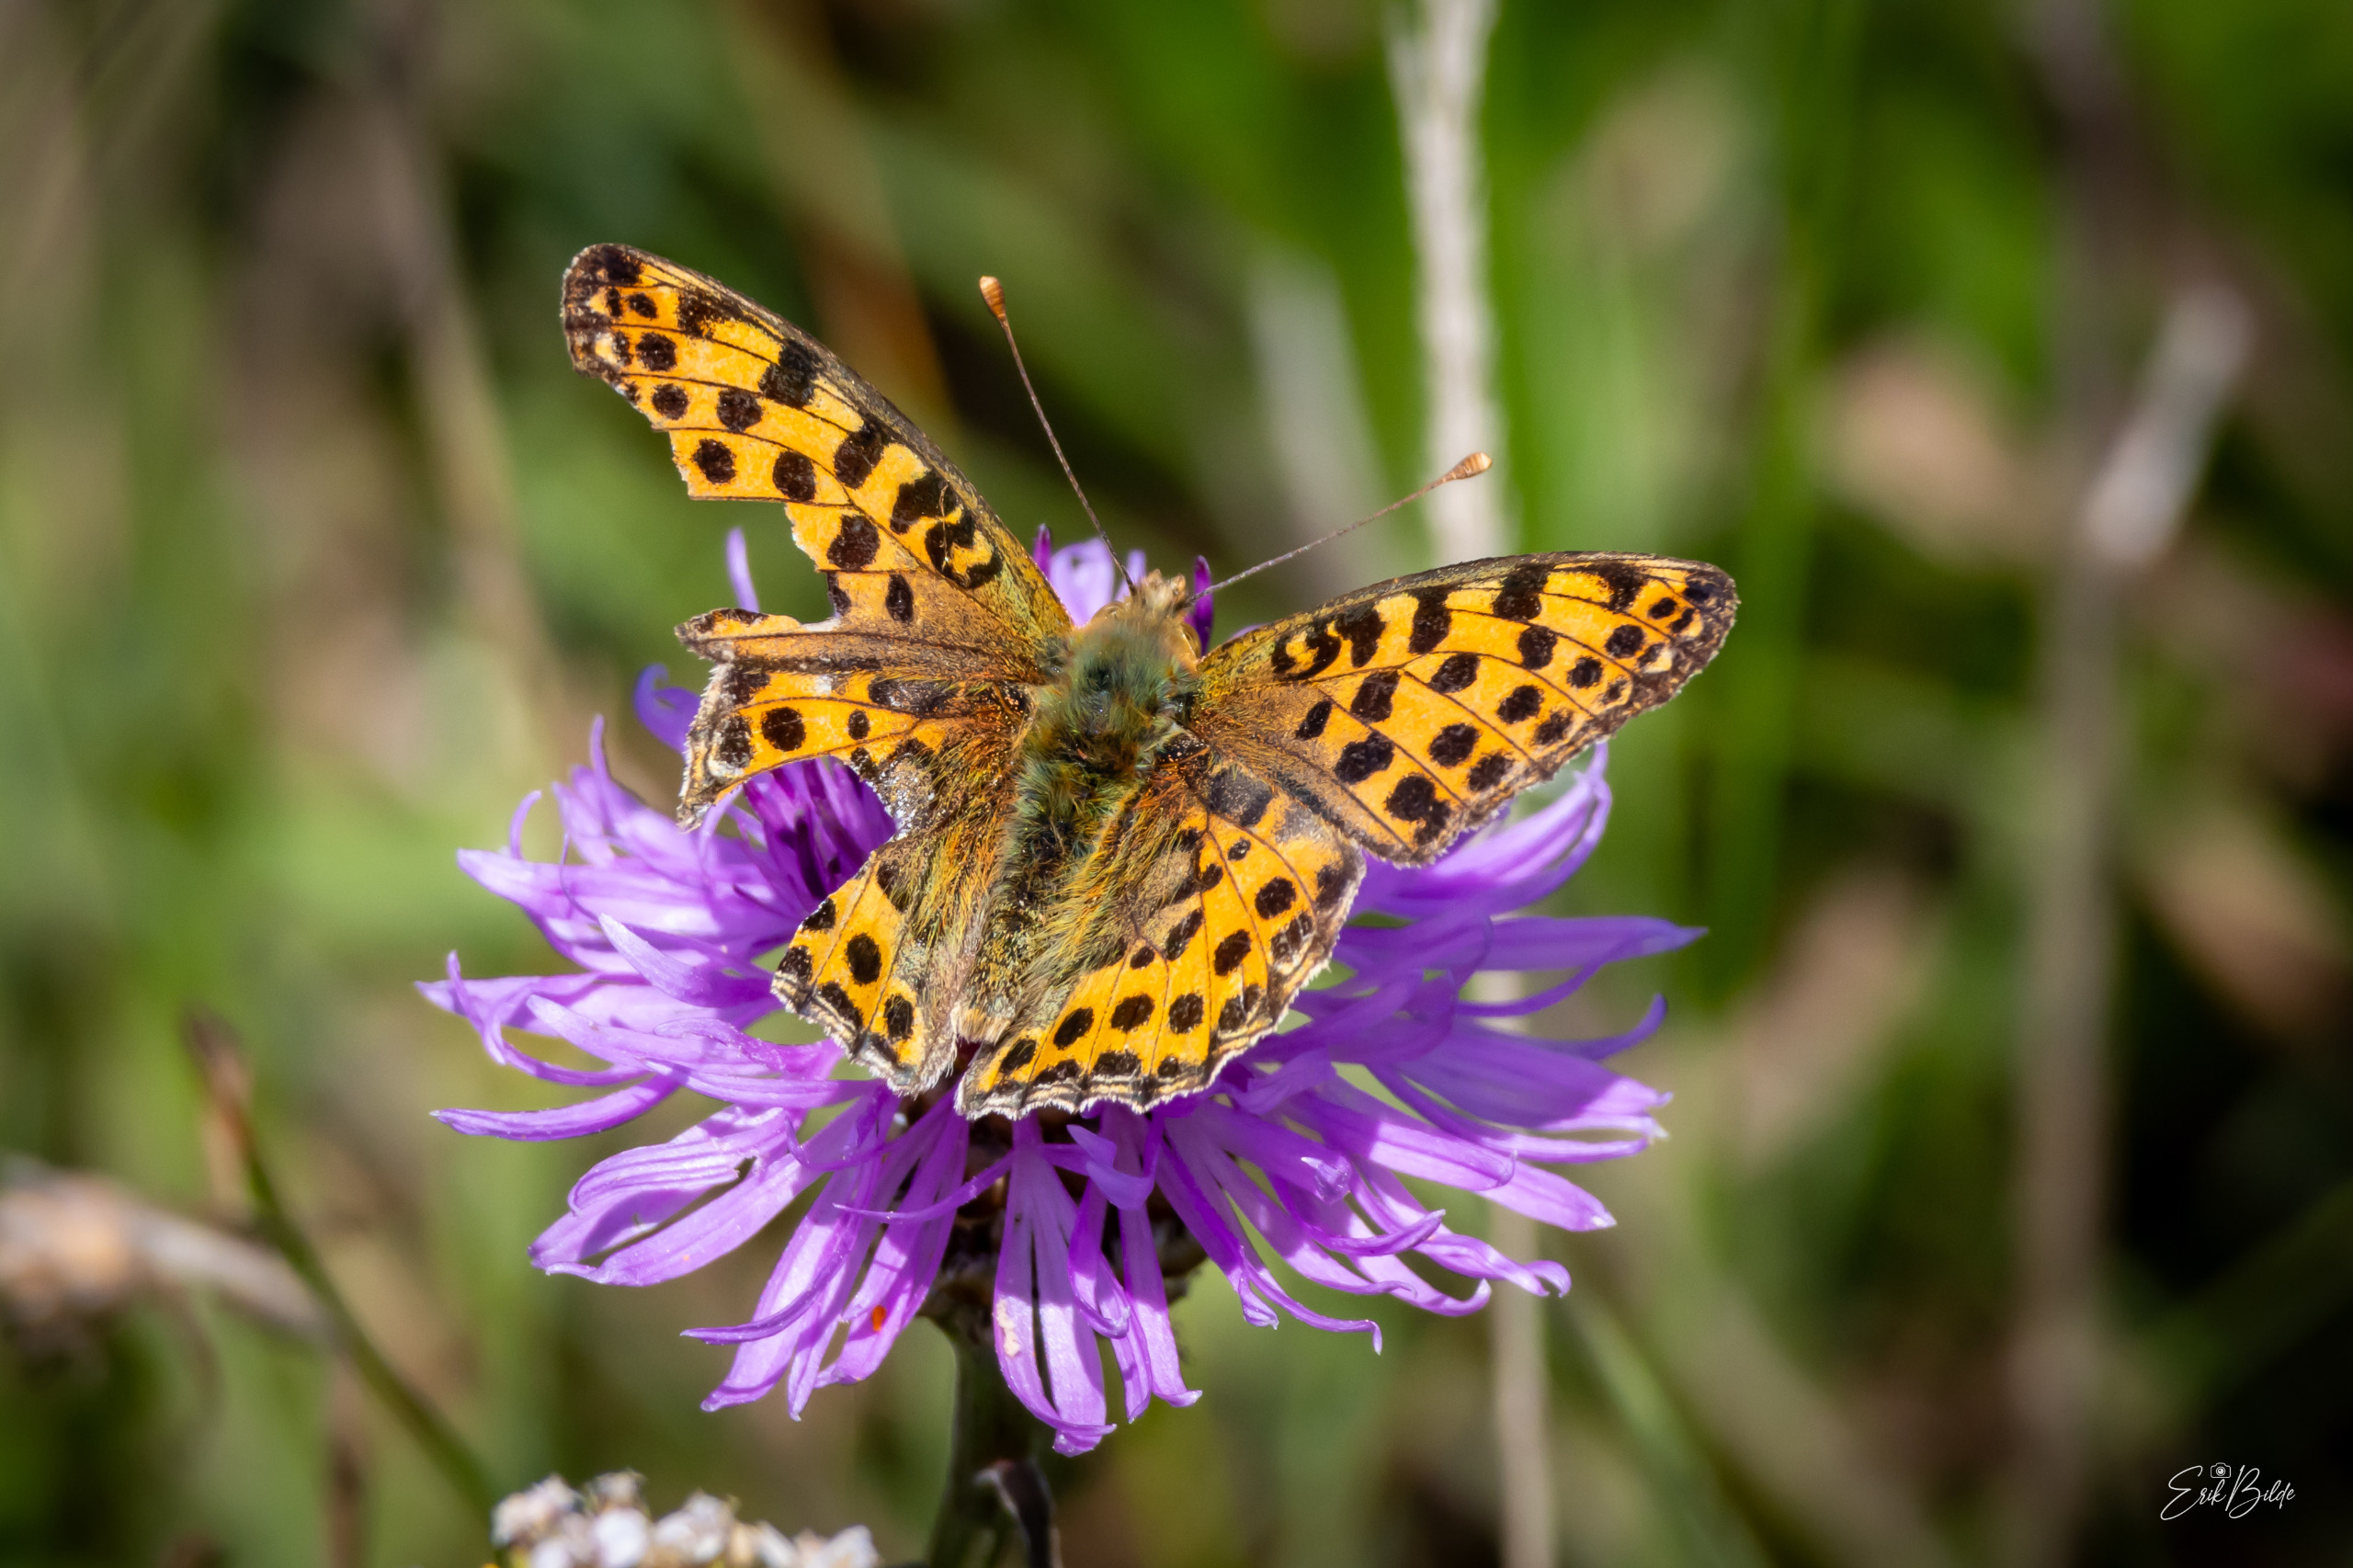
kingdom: Animalia
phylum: Arthropoda
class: Insecta
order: Lepidoptera
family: Nymphalidae
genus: Issoria
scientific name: Issoria lathonia
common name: Storplettet perlemorsommerfugl
